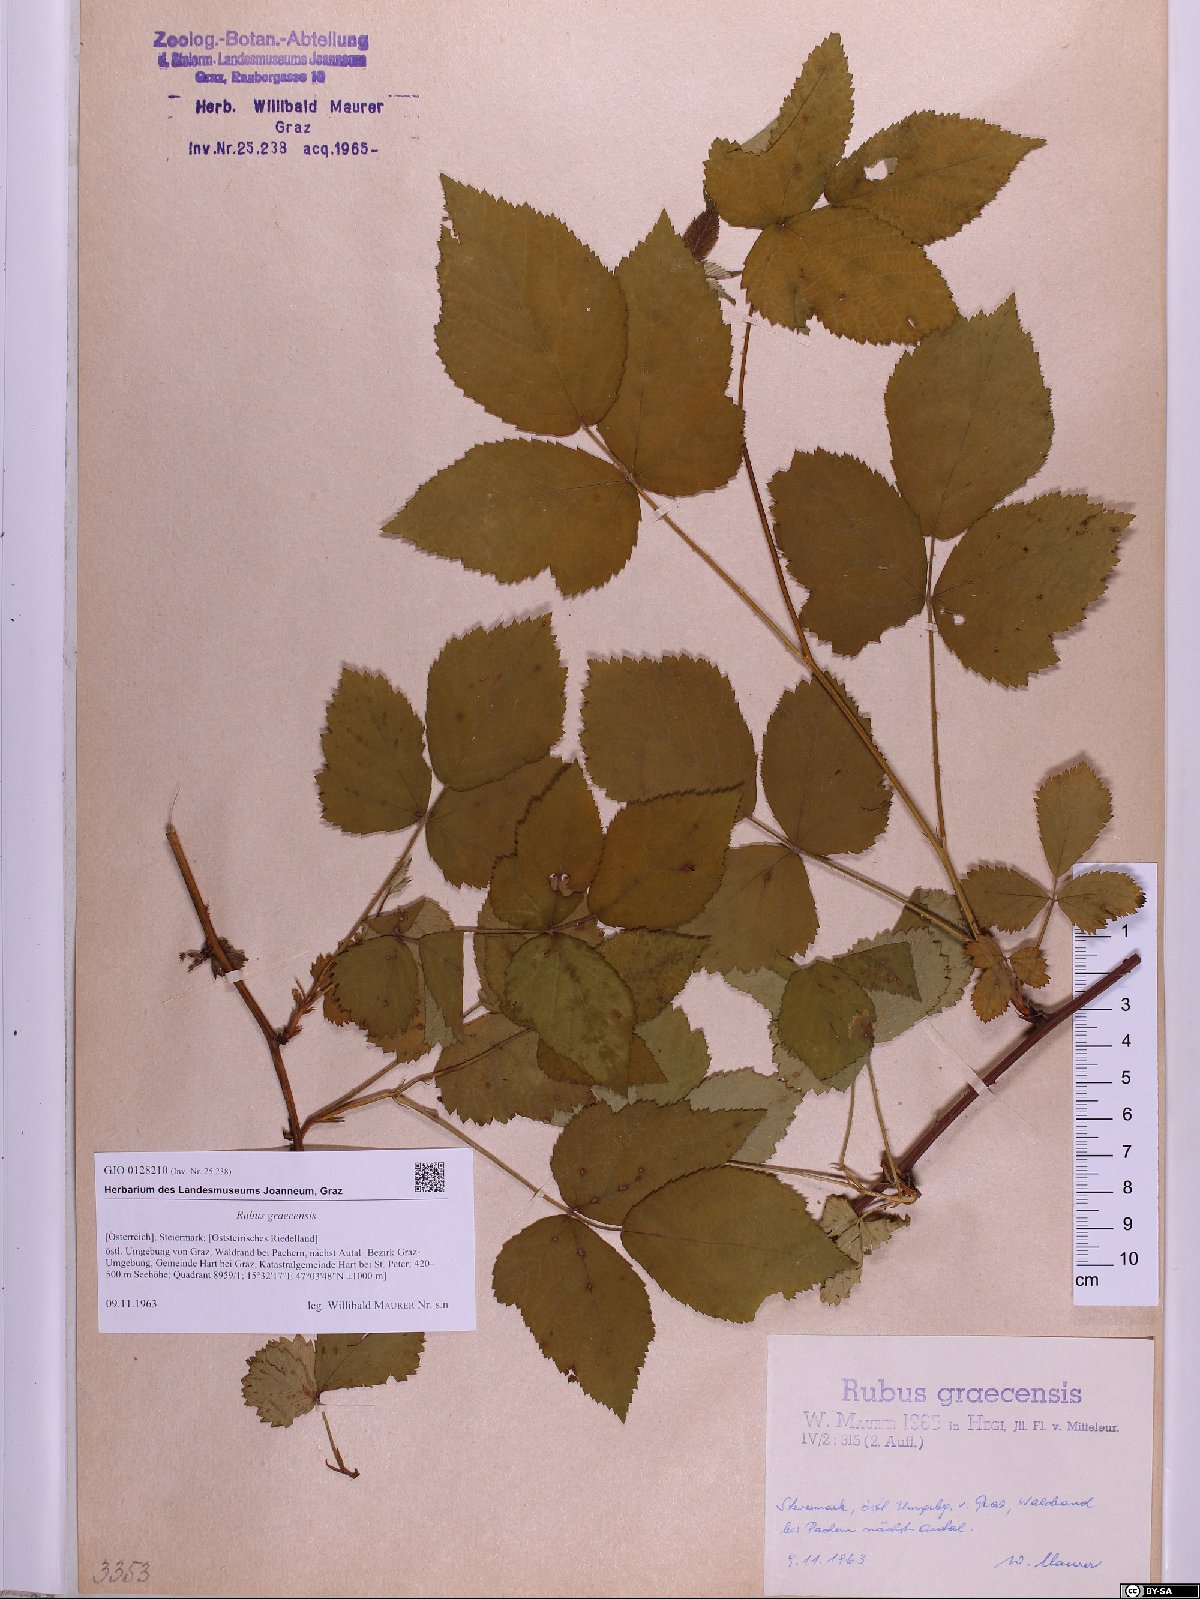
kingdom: Plantae
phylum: Tracheophyta
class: Magnoliopsida
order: Rosales
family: Rosaceae
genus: Rubus
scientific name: Rubus graecensis
